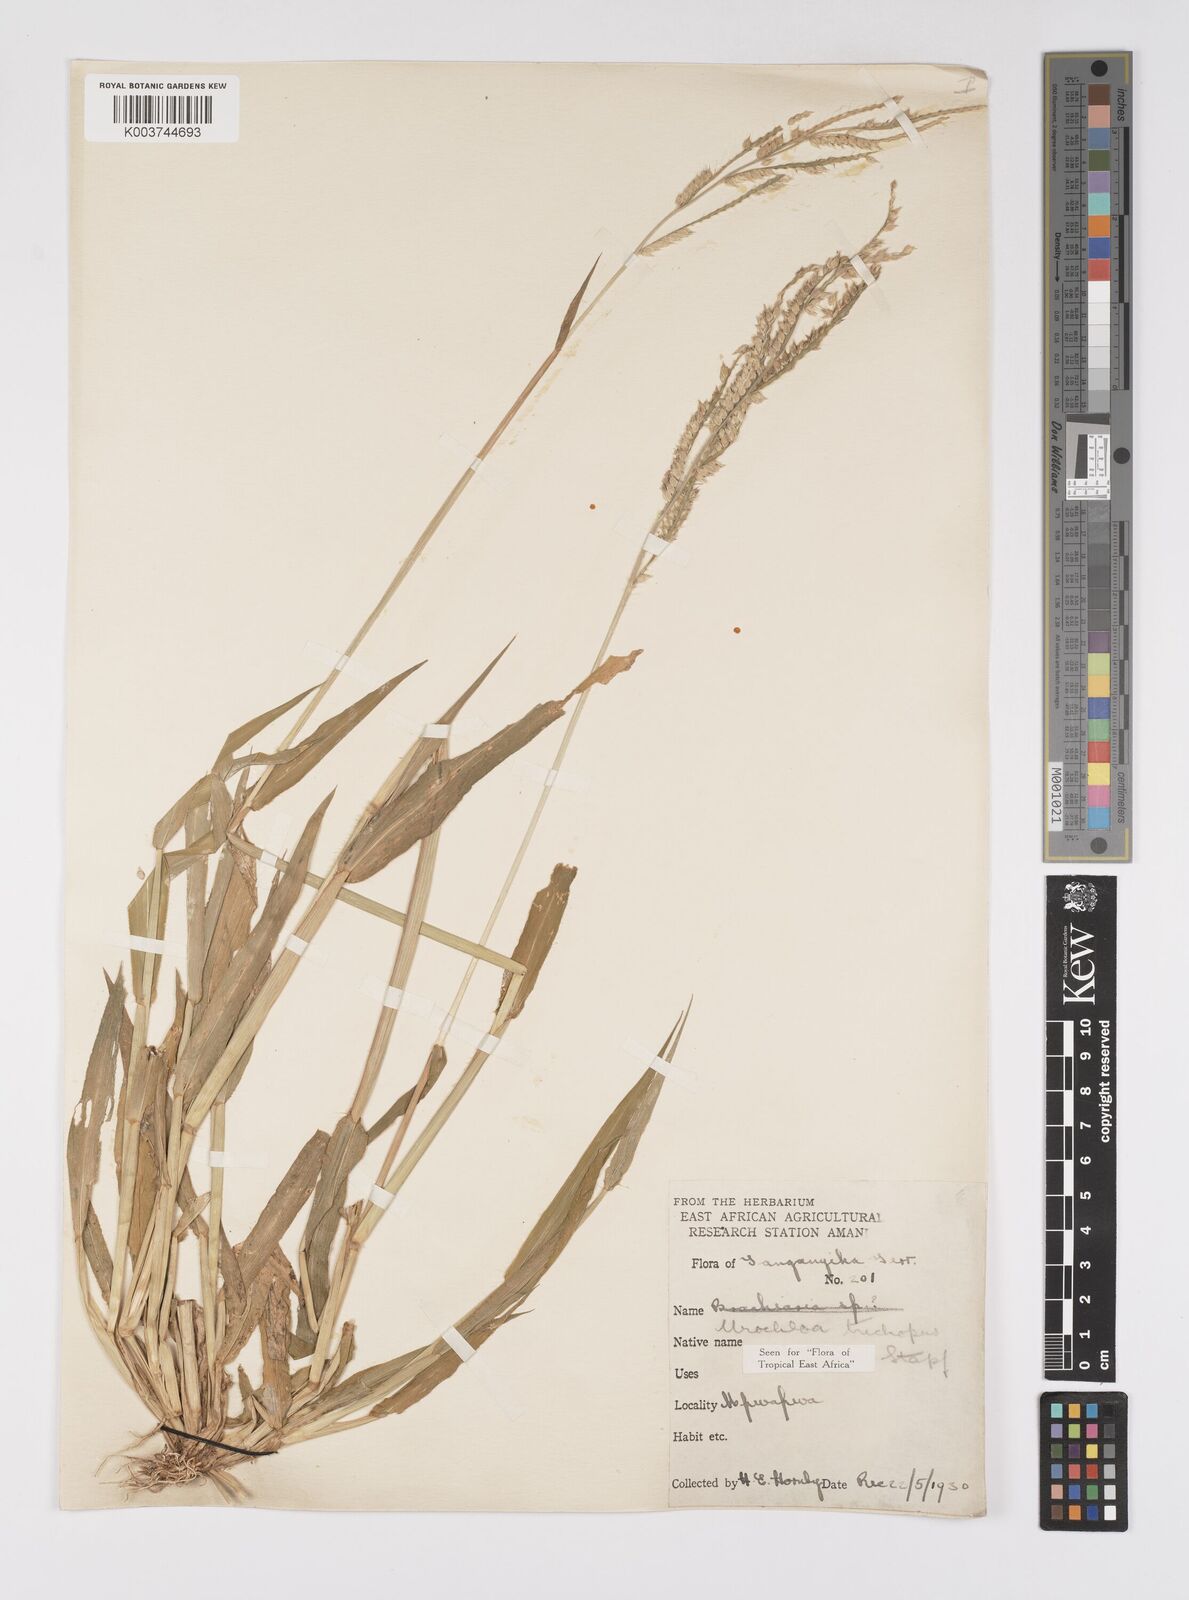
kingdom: Plantae
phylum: Tracheophyta
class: Liliopsida
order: Poales
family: Poaceae
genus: Urochloa
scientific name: Urochloa trichopus
